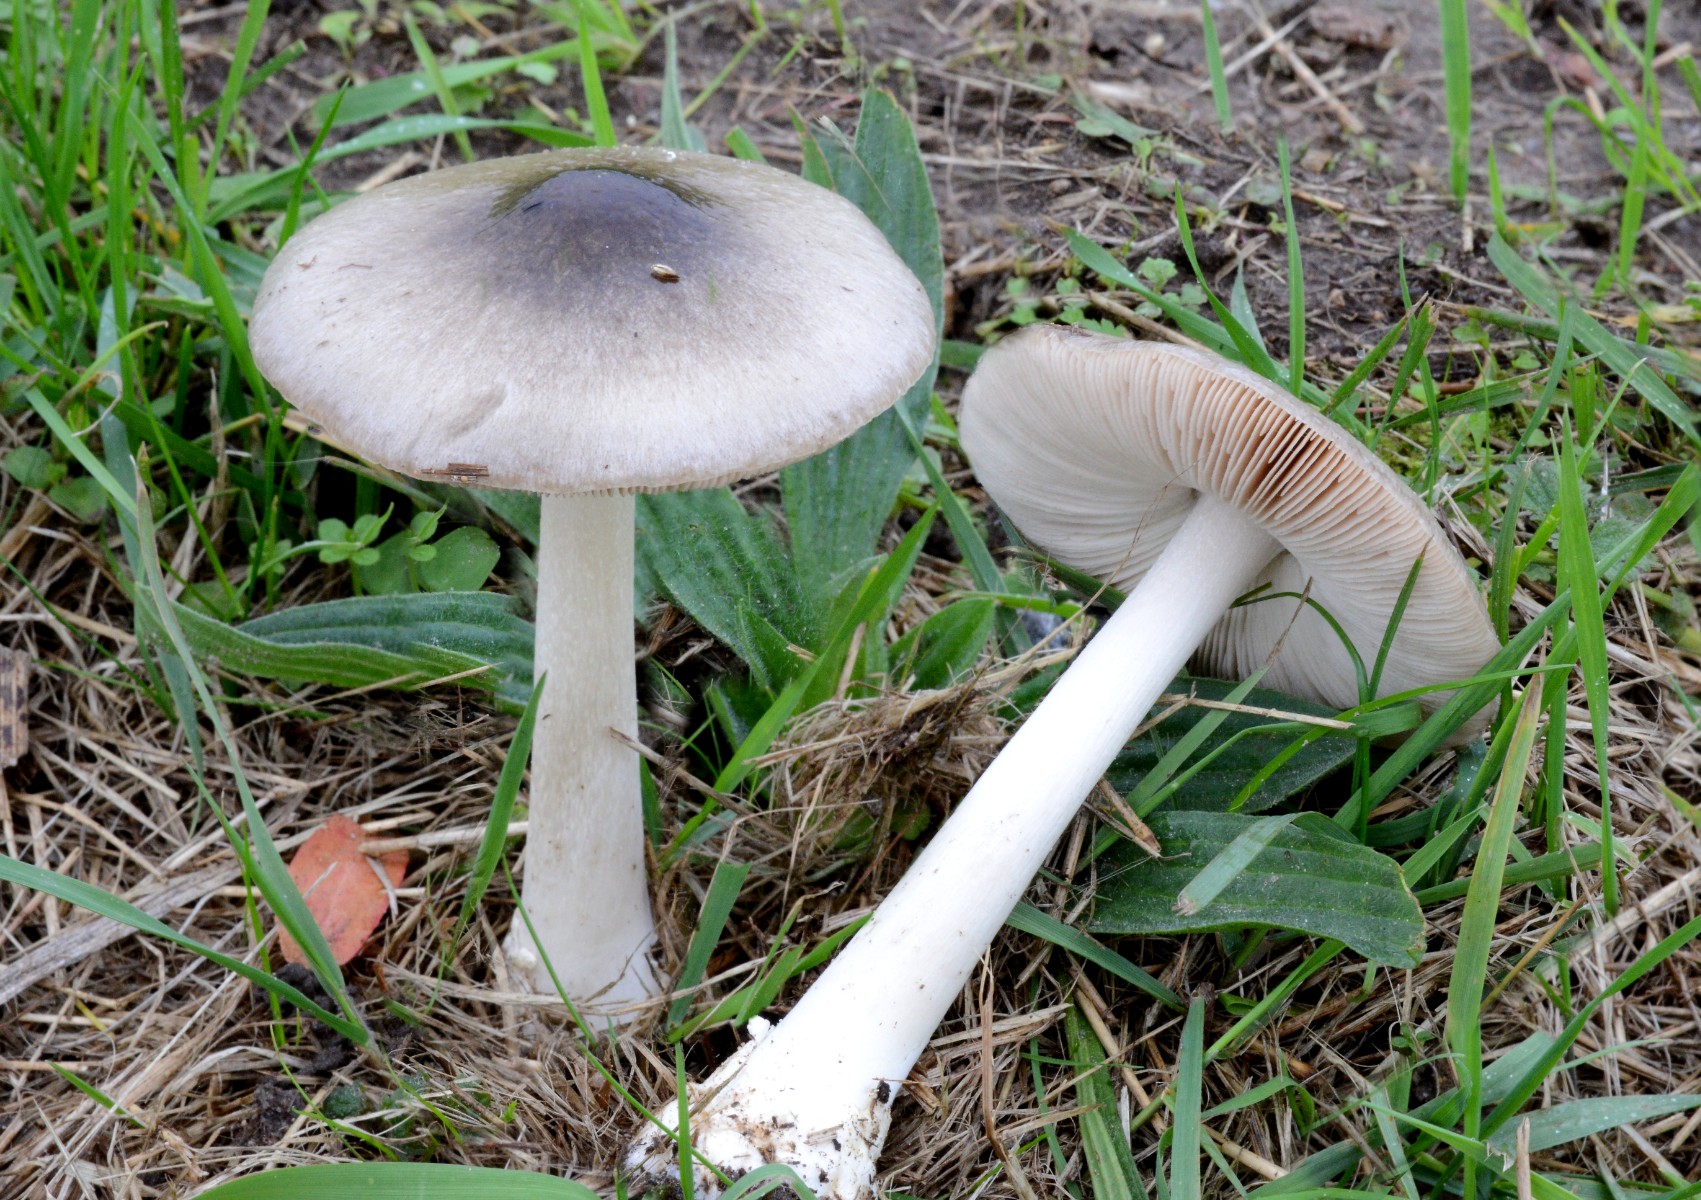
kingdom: Fungi
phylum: Basidiomycota
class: Agaricomycetes
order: Agaricales
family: Pluteaceae
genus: Volvopluteus
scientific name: Volvopluteus gloiocephalus
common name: høj posesvamp
